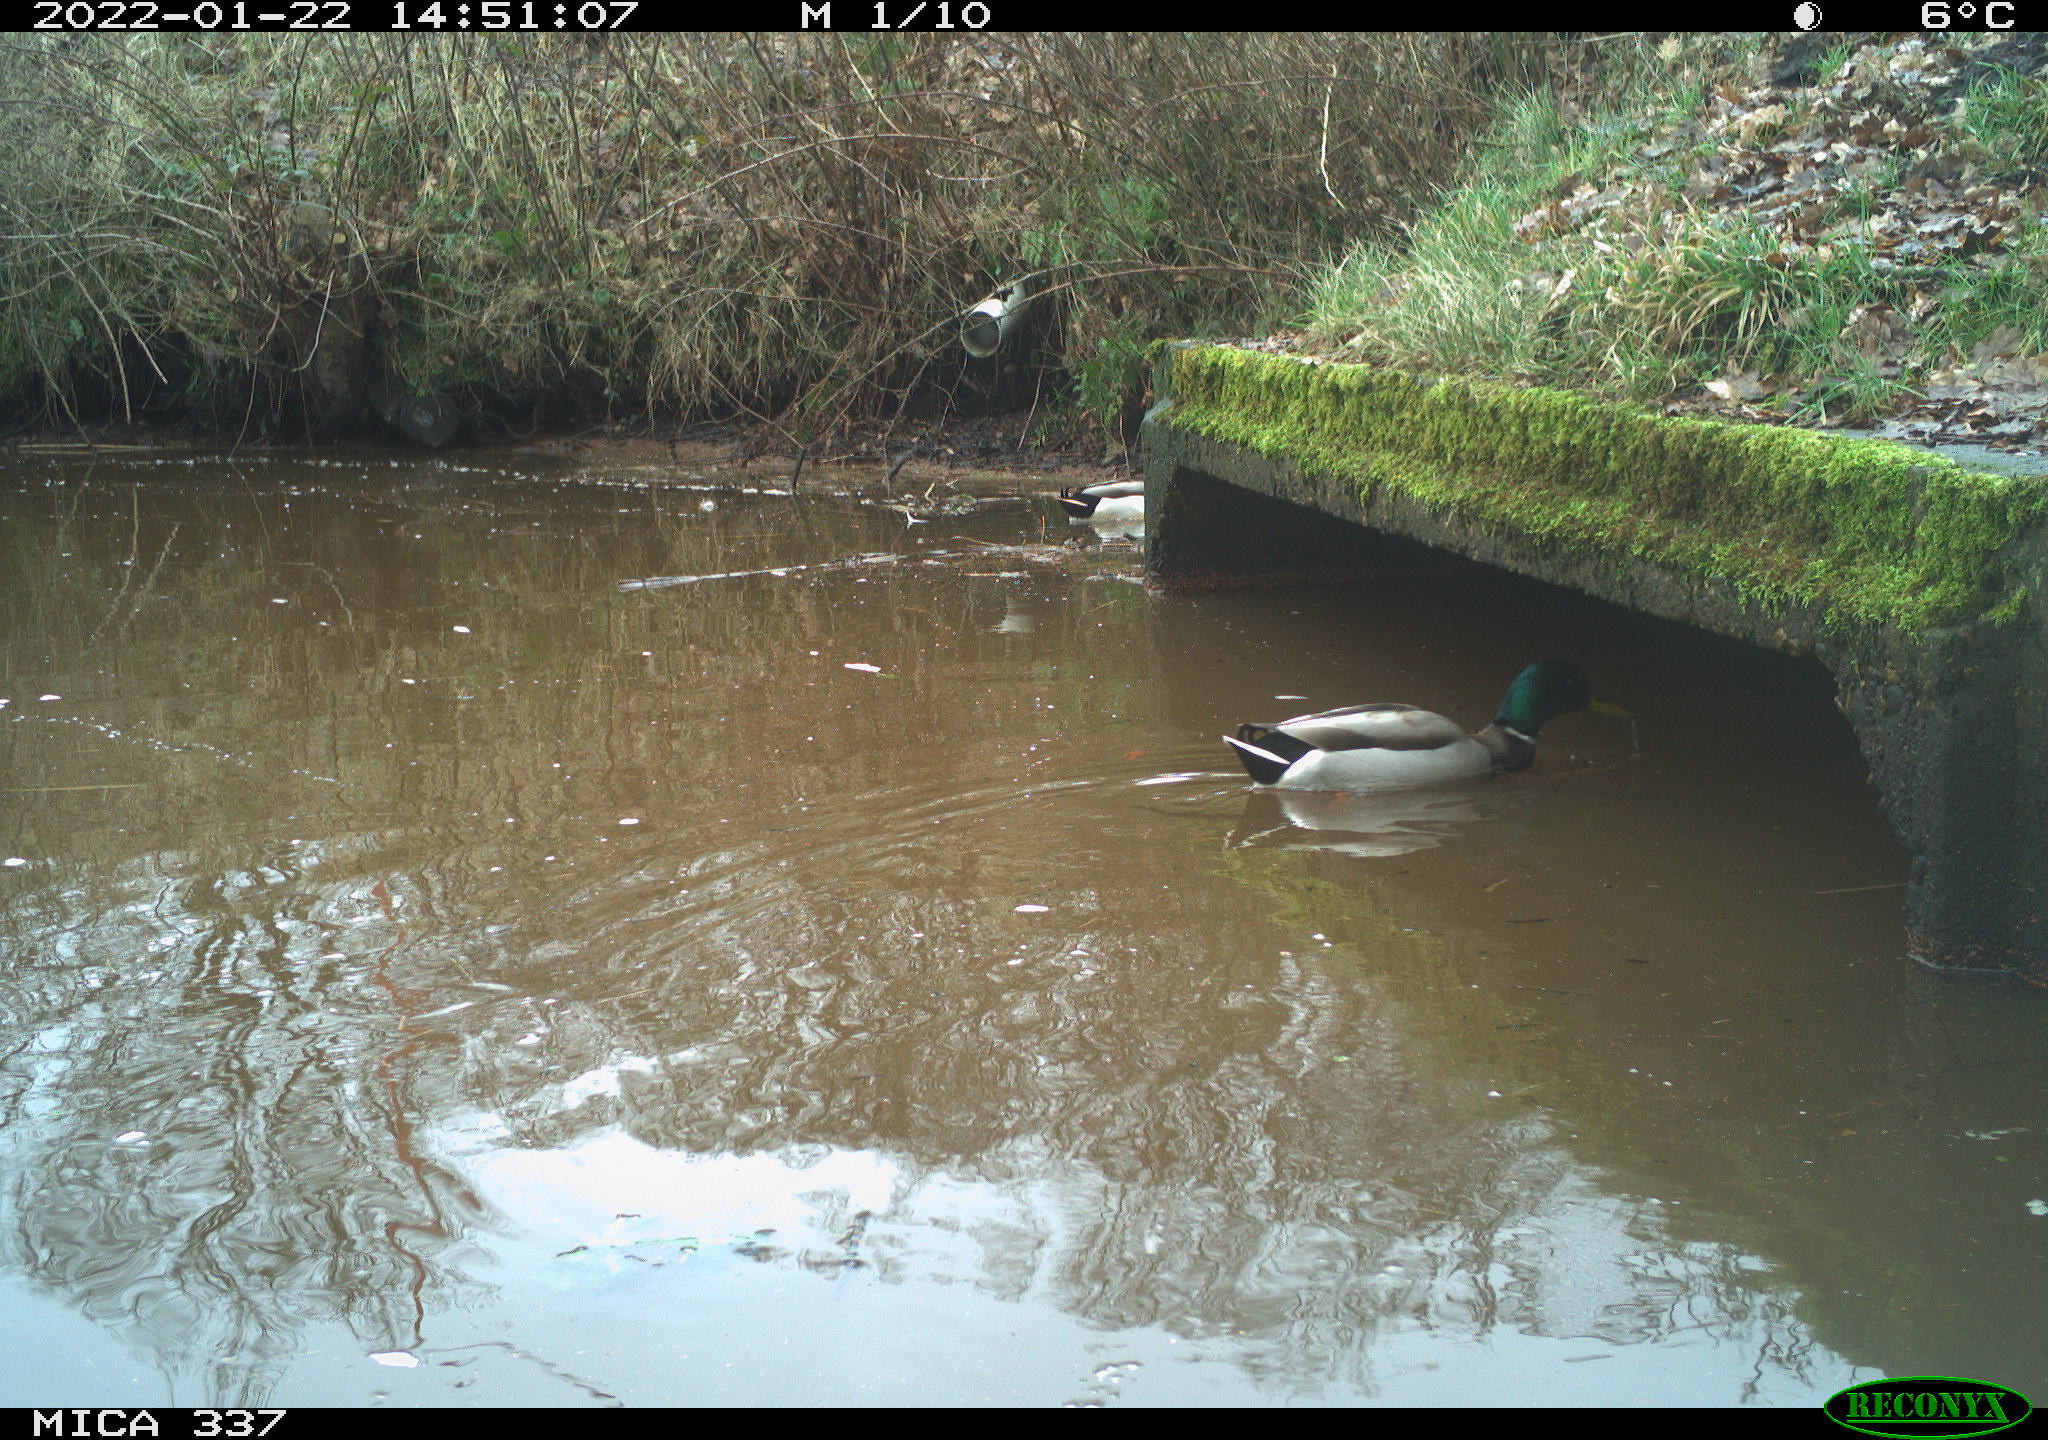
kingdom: Animalia
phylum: Chordata
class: Aves
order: Anseriformes
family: Anatidae
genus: Anas
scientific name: Anas platyrhynchos
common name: Mallard
